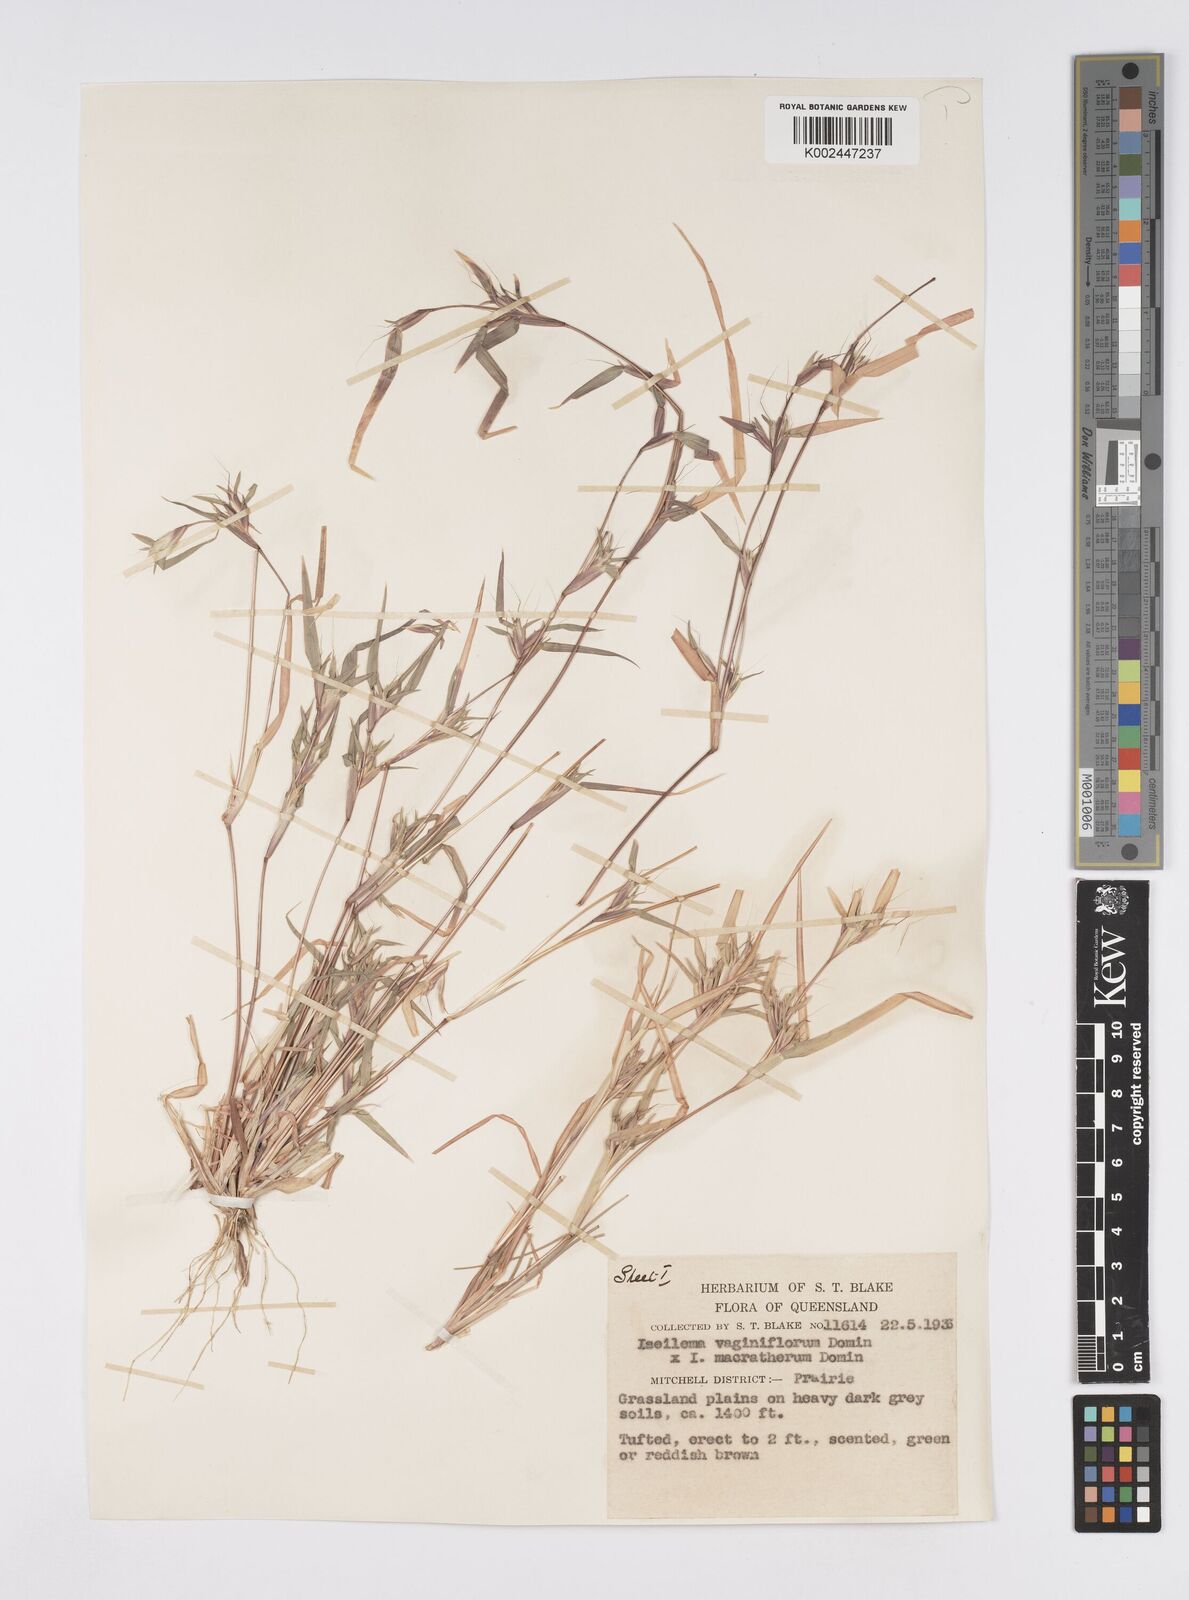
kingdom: Plantae
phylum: Tracheophyta
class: Liliopsida
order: Poales
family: Poaceae
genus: Iseilema
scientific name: Iseilema macratherum
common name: Bull flinders grass
